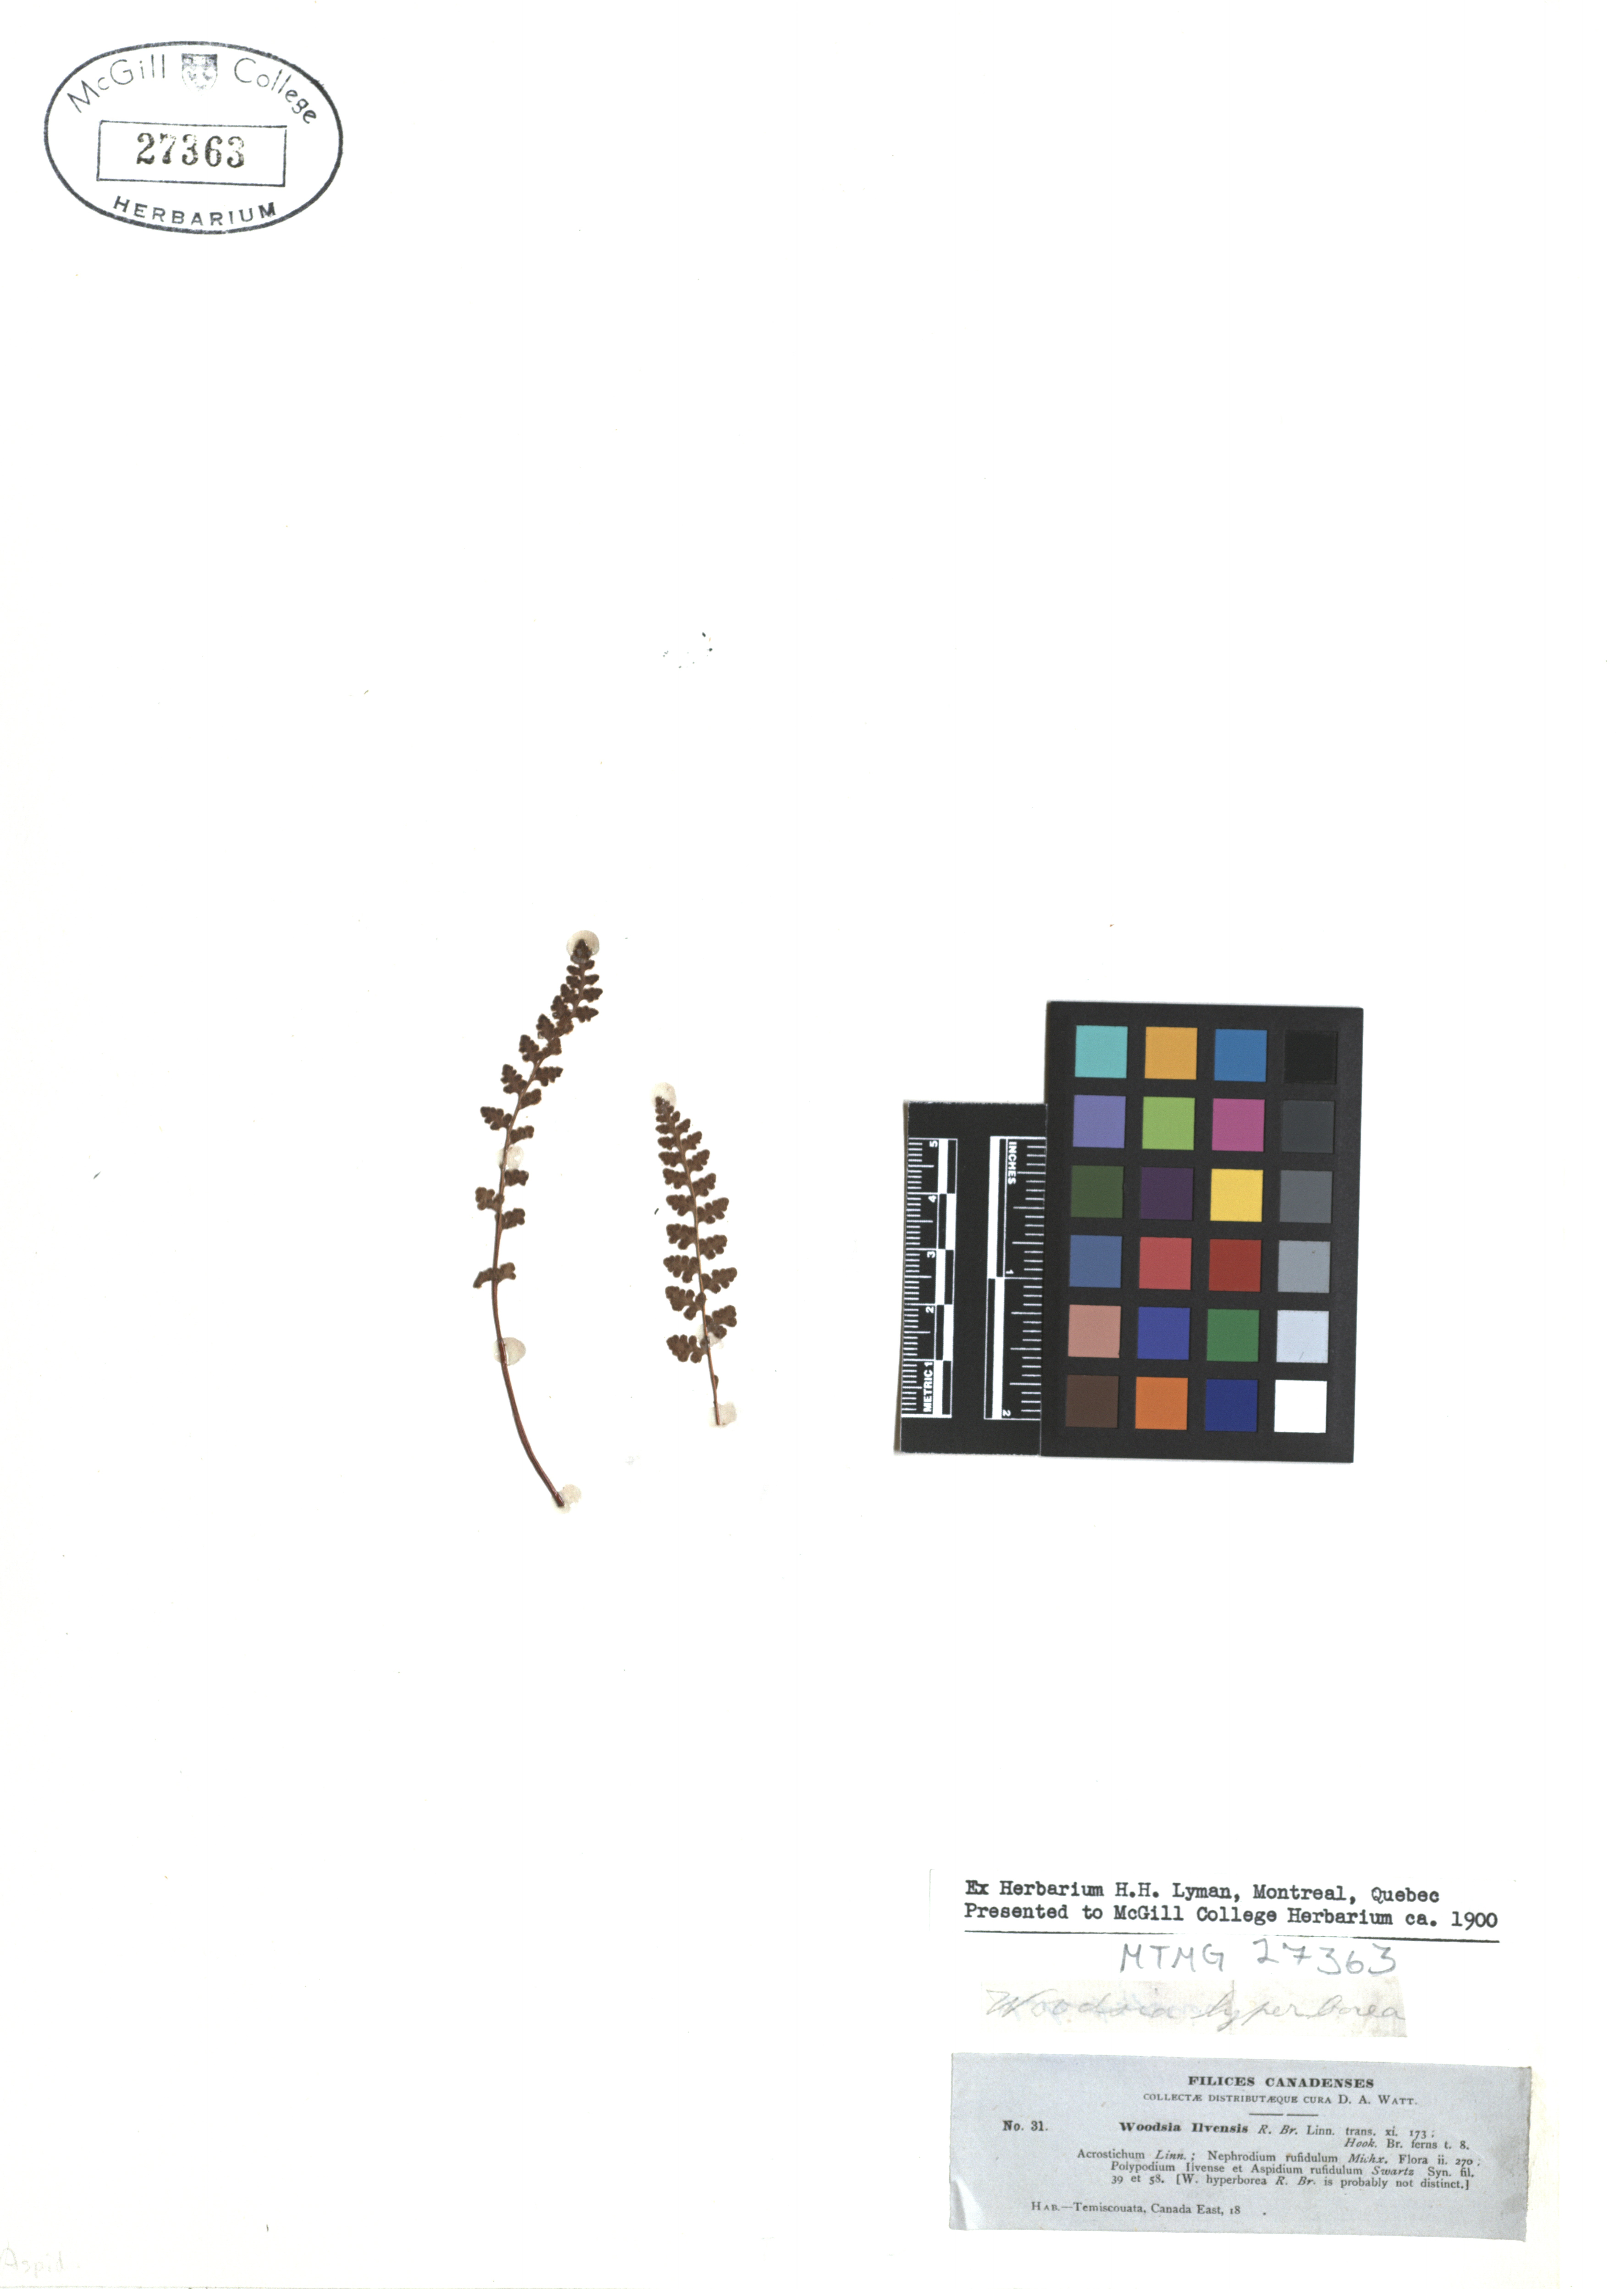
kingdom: Plantae
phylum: Tracheophyta
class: Polypodiopsida
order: Polypodiales
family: Woodsiaceae
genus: Woodsia
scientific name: Woodsia ilvensis
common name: Fragrant woodsia
